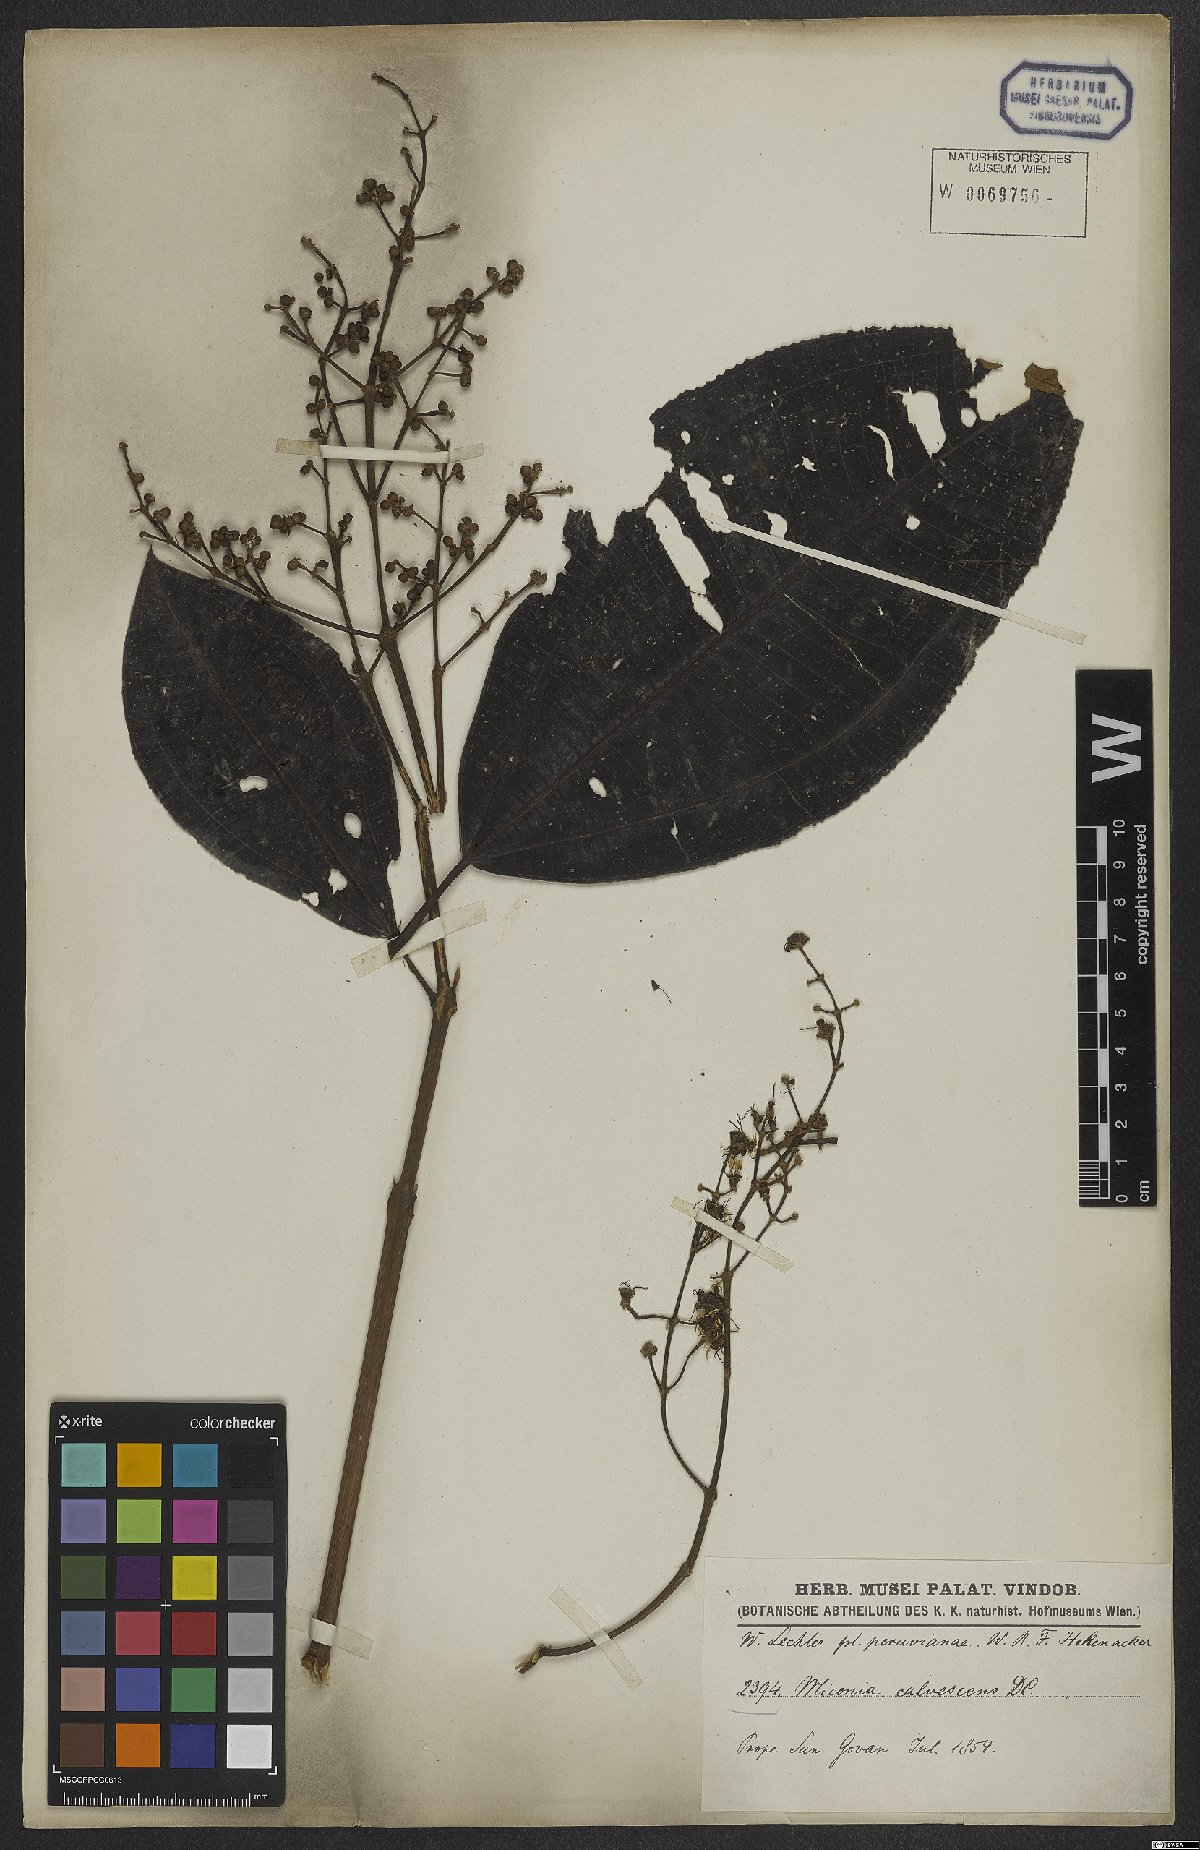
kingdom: Plantae
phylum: Tracheophyta
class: Magnoliopsida
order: Myrtales
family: Melastomataceae
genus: Miconia
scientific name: Miconia calvescens
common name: Purple plague
